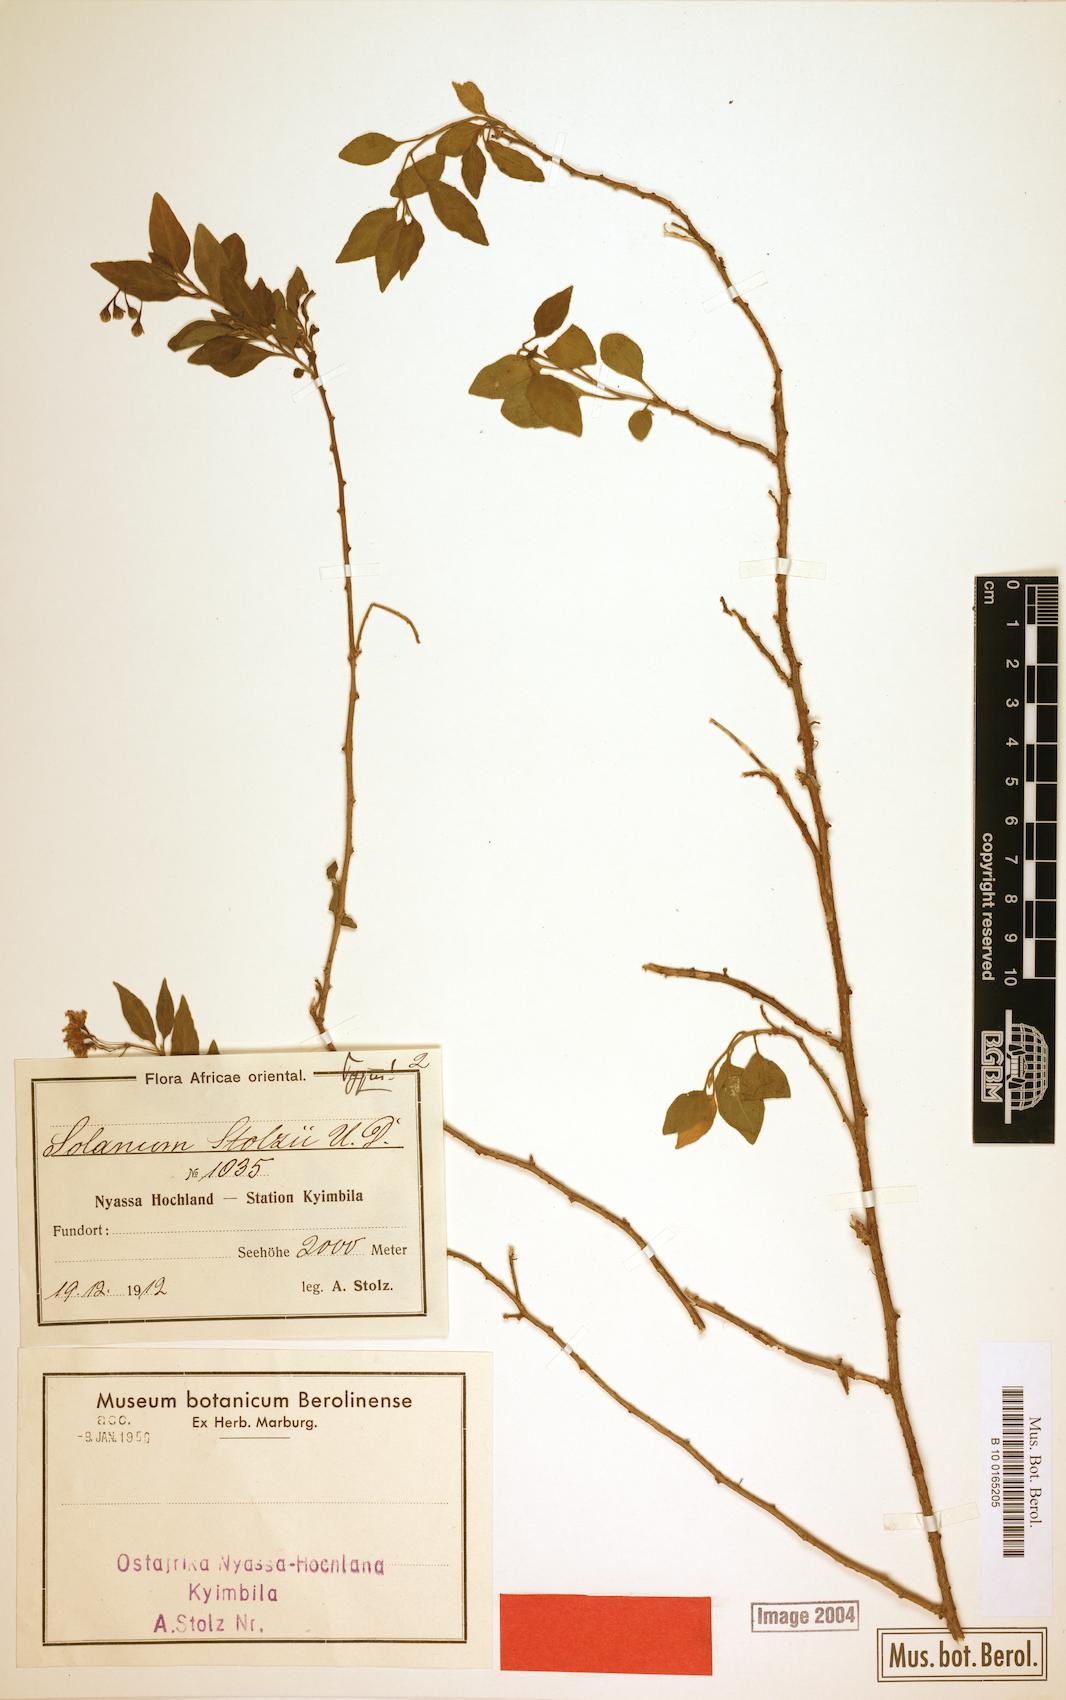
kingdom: Plantae
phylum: Tracheophyta
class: Magnoliopsida
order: Solanales
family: Solanaceae
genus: Solanum
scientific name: Solanum nakurense
